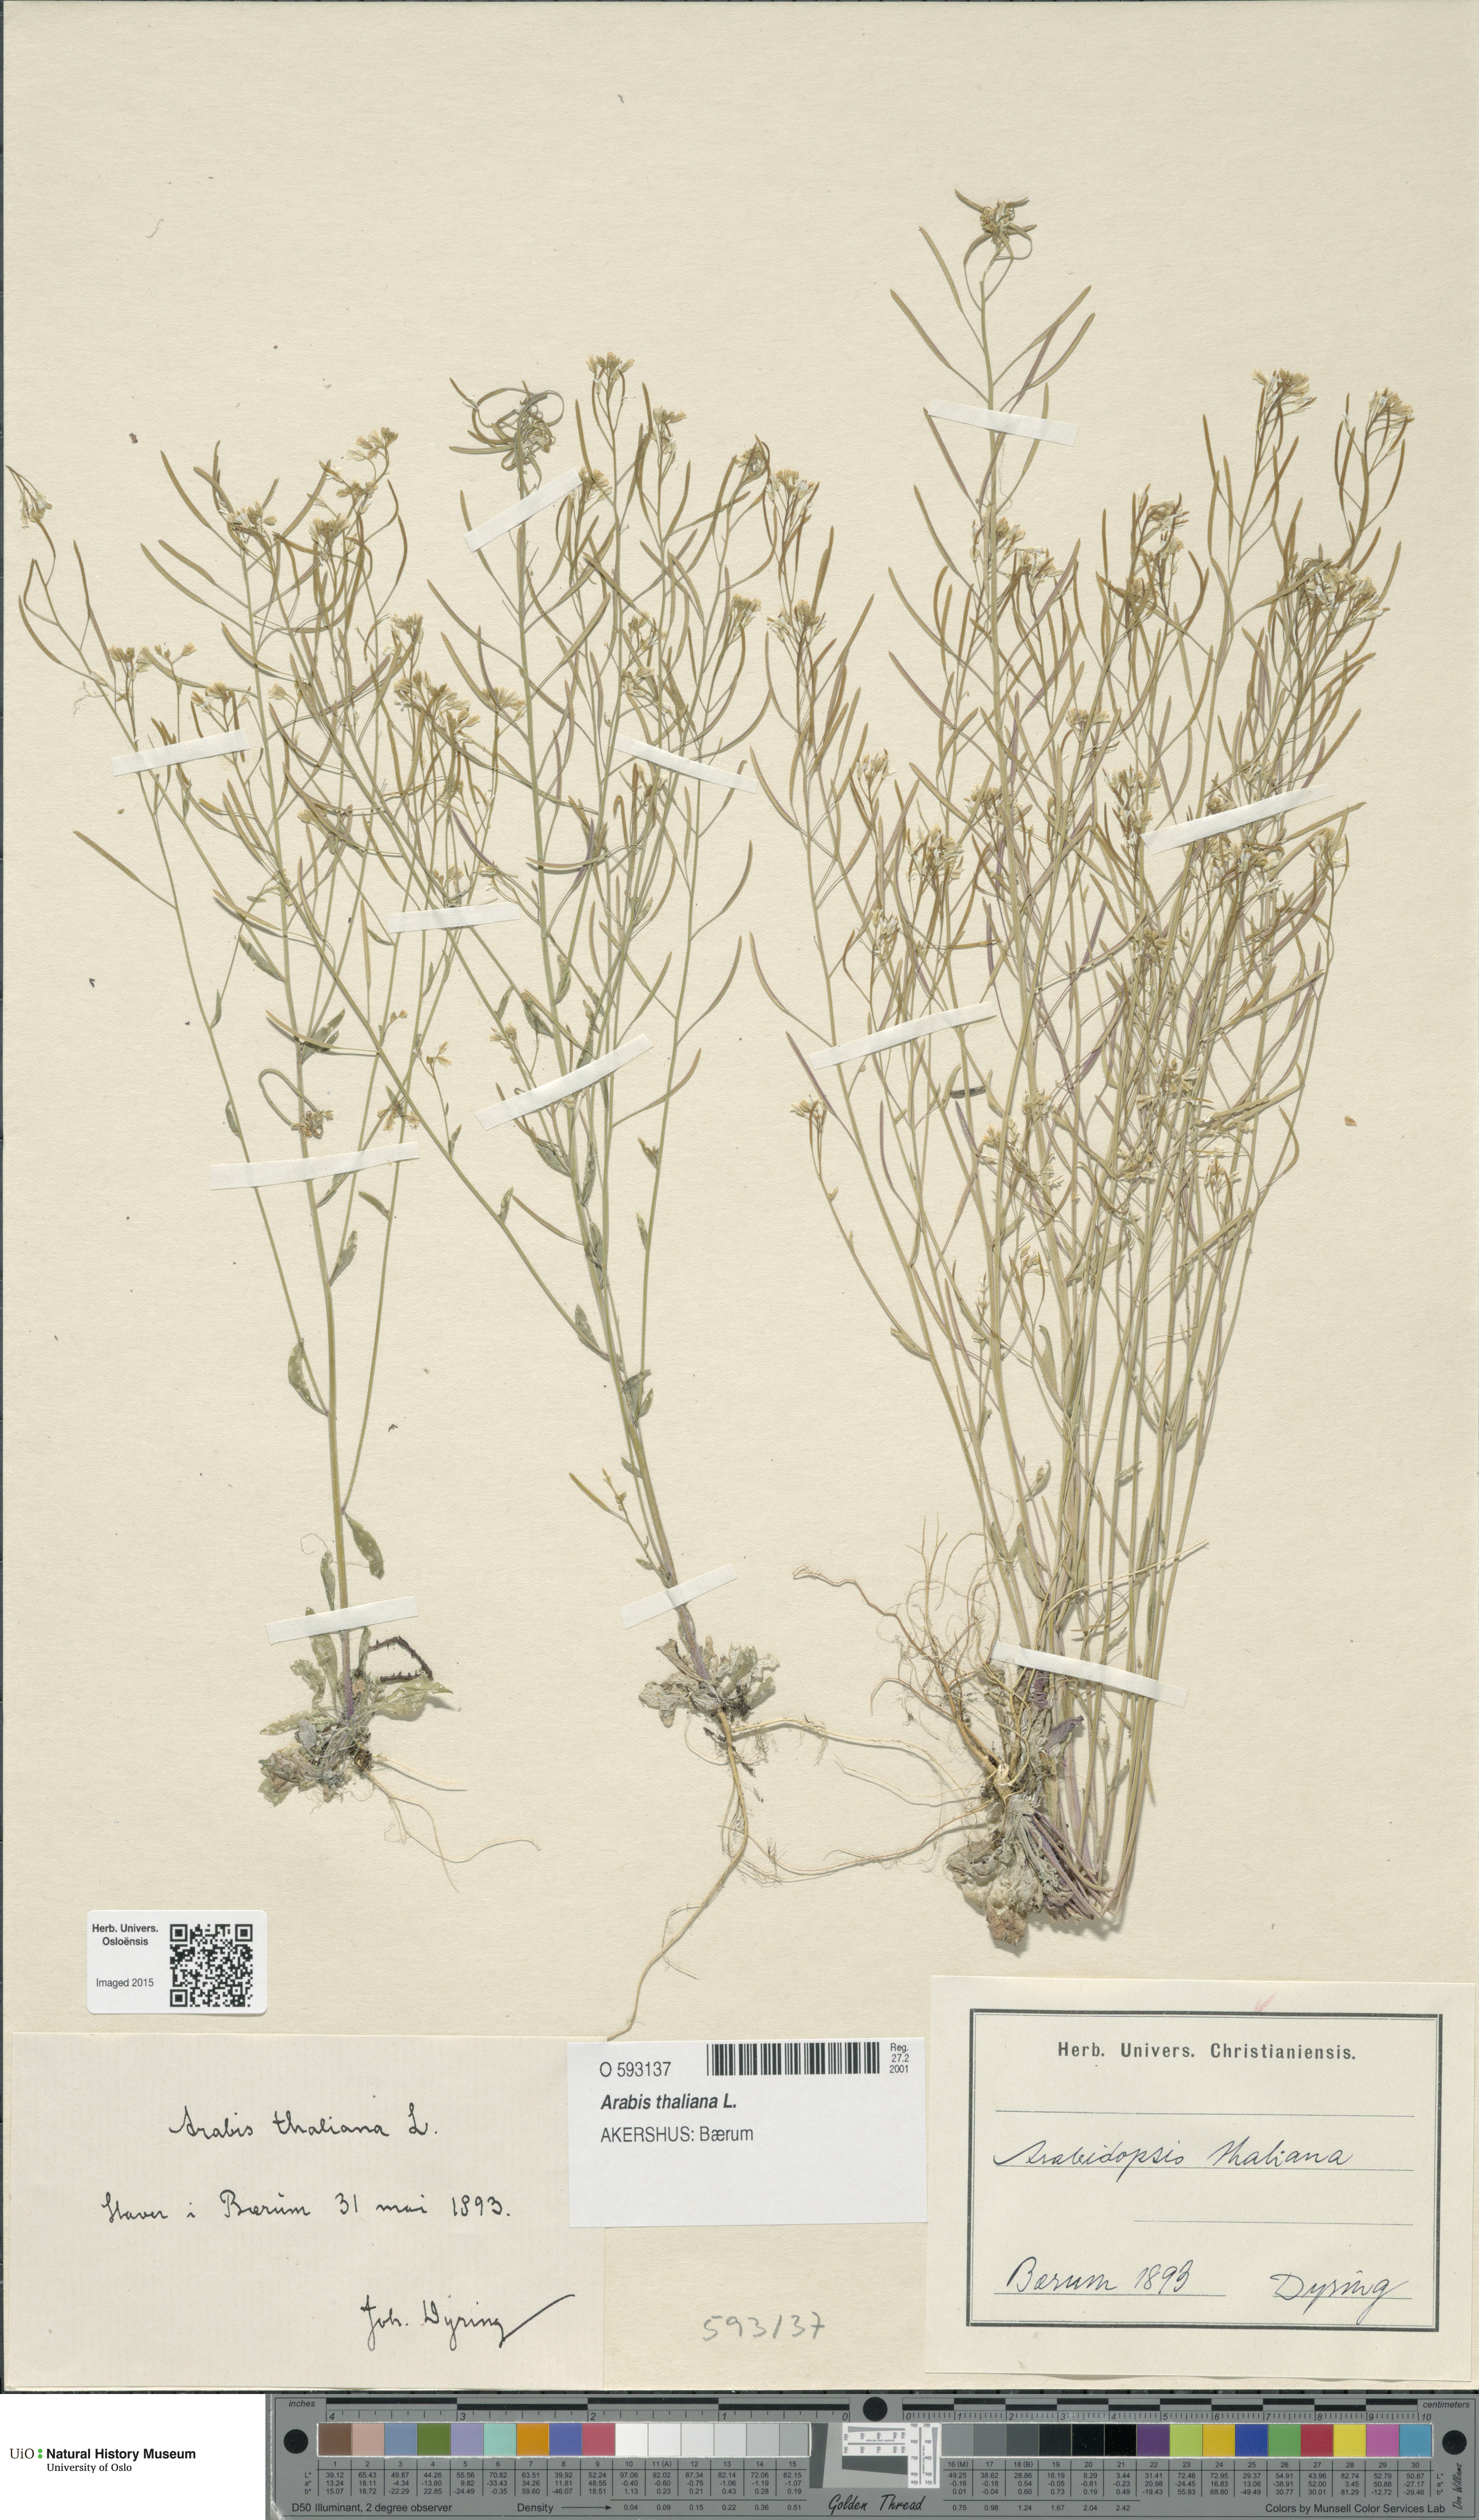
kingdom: Plantae
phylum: Tracheophyta
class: Magnoliopsida
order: Brassicales
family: Brassicaceae
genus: Arabidopsis
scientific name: Arabidopsis thaliana
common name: Thale cress
